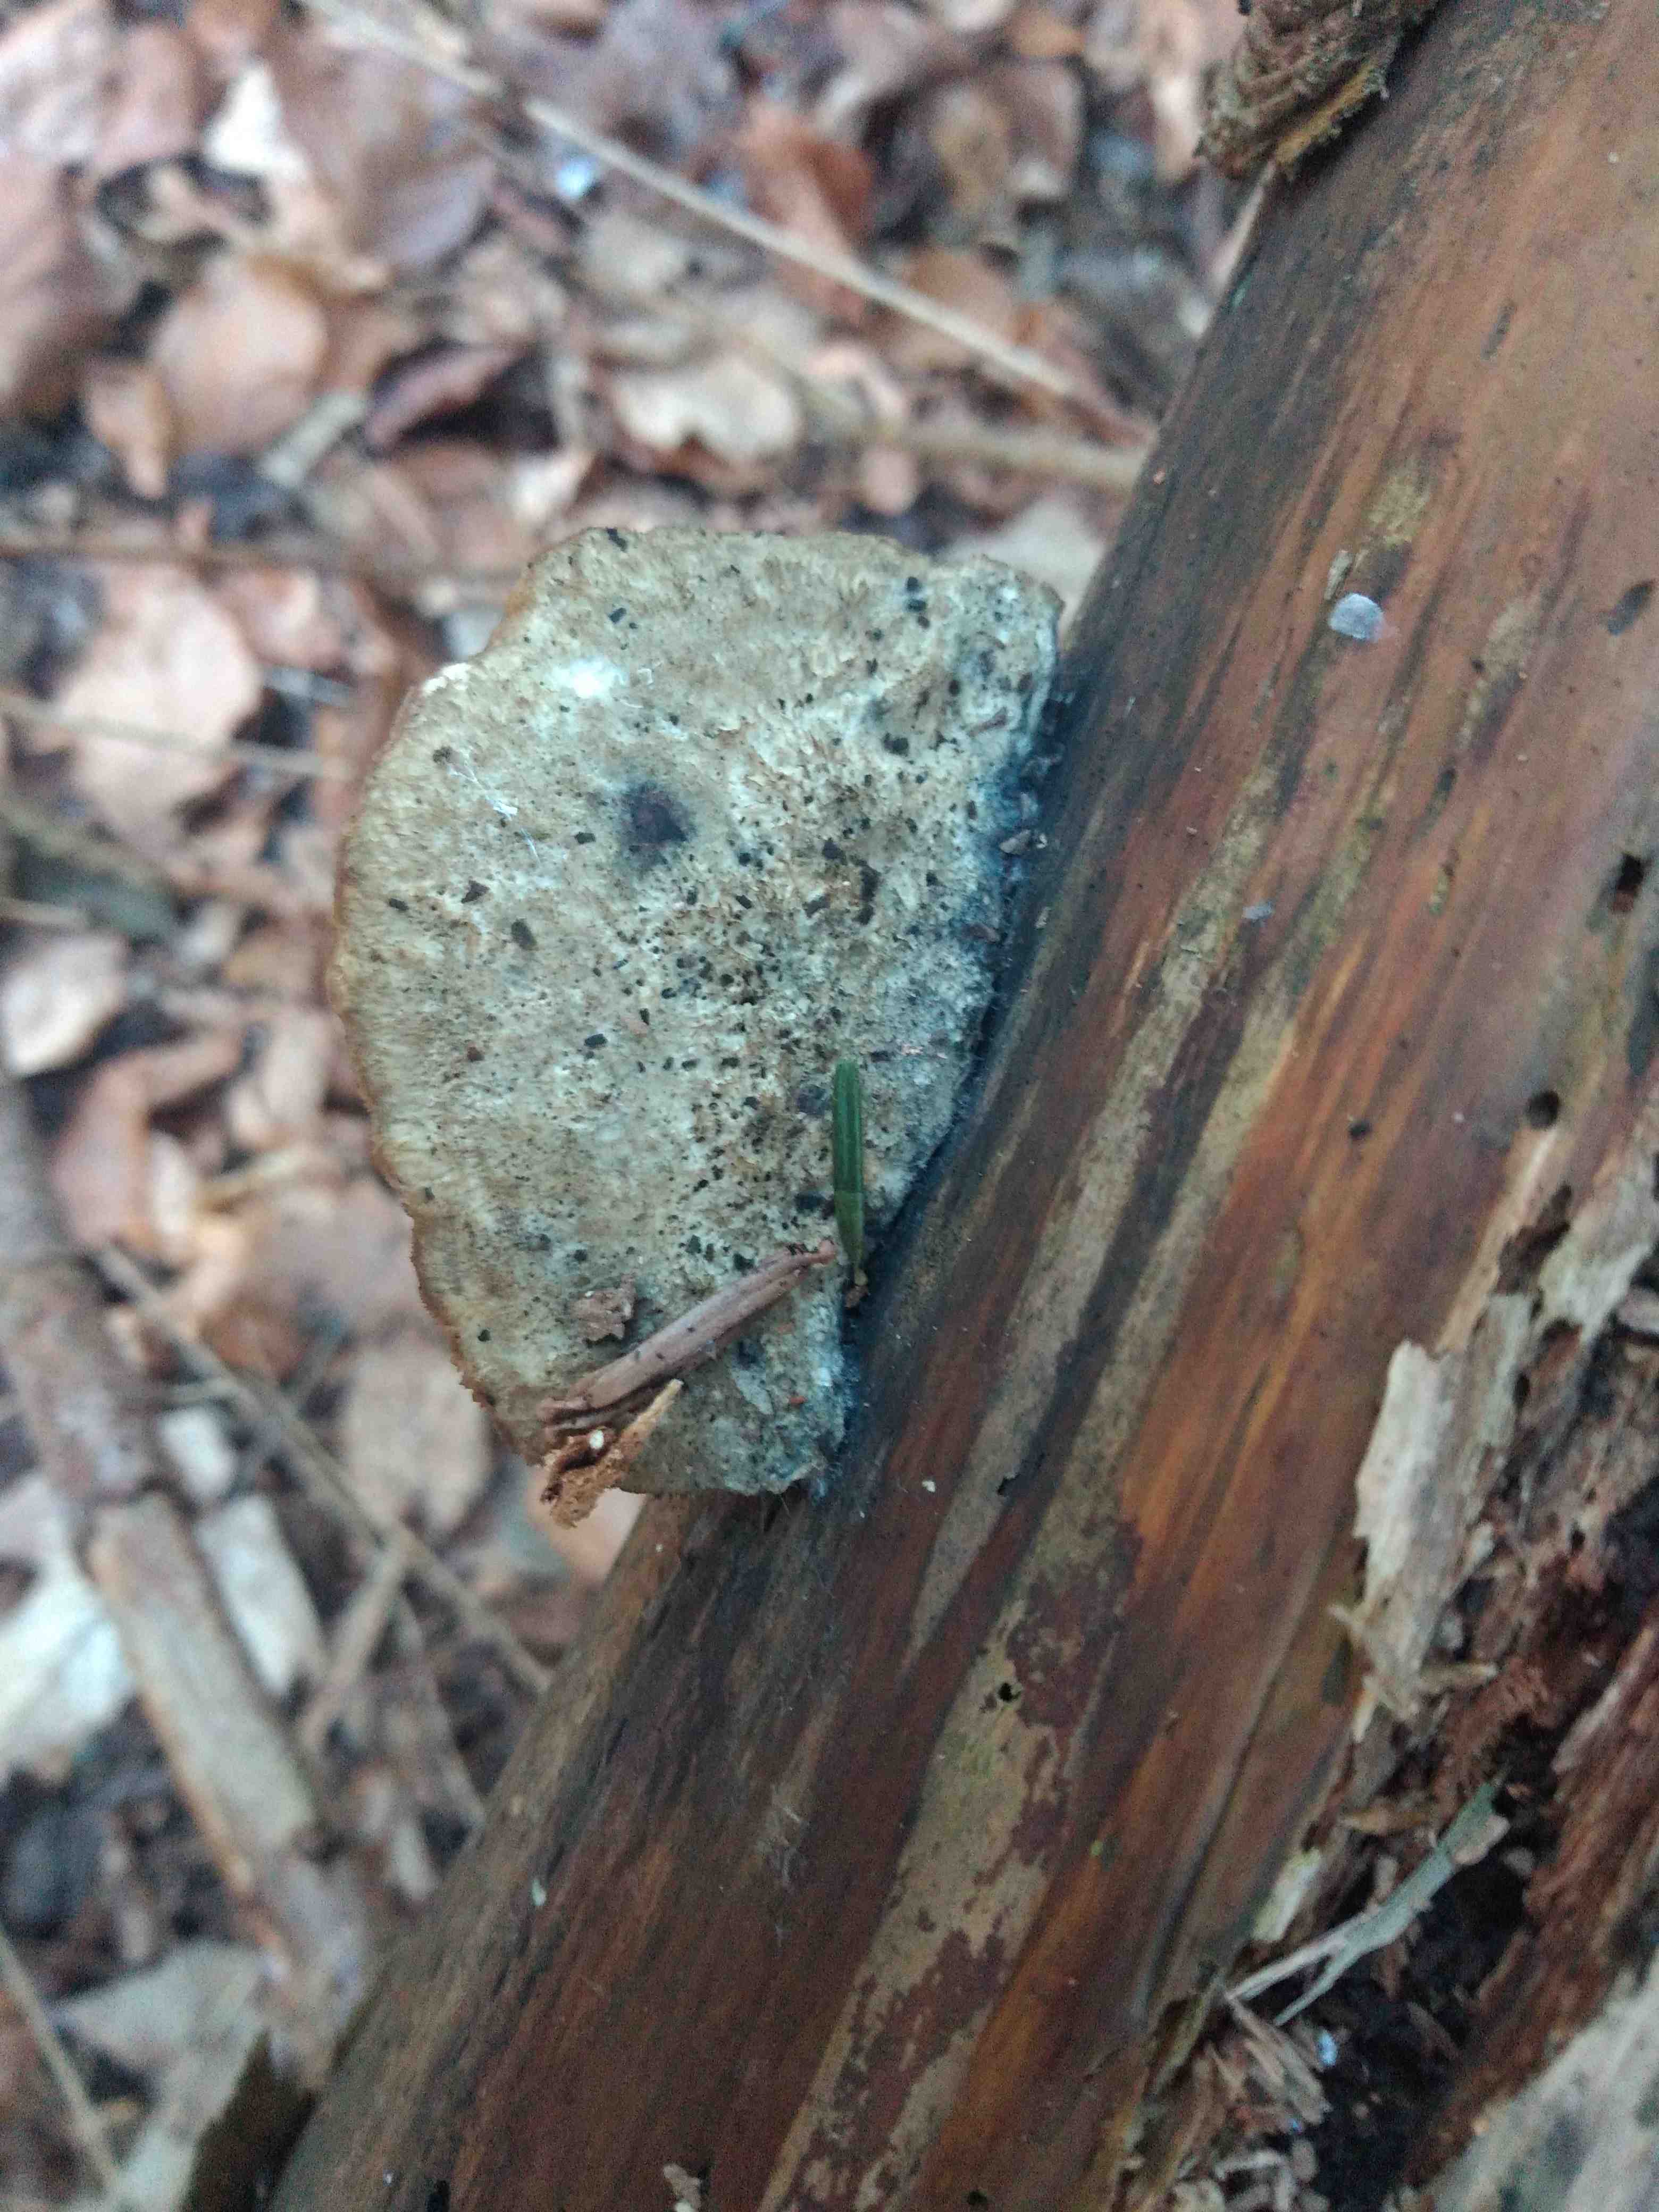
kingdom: Fungi
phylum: Basidiomycota
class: Agaricomycetes
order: Polyporales
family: Polyporaceae
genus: Cyanosporus
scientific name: Cyanosporus caesius
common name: blålig kødporesvamp
